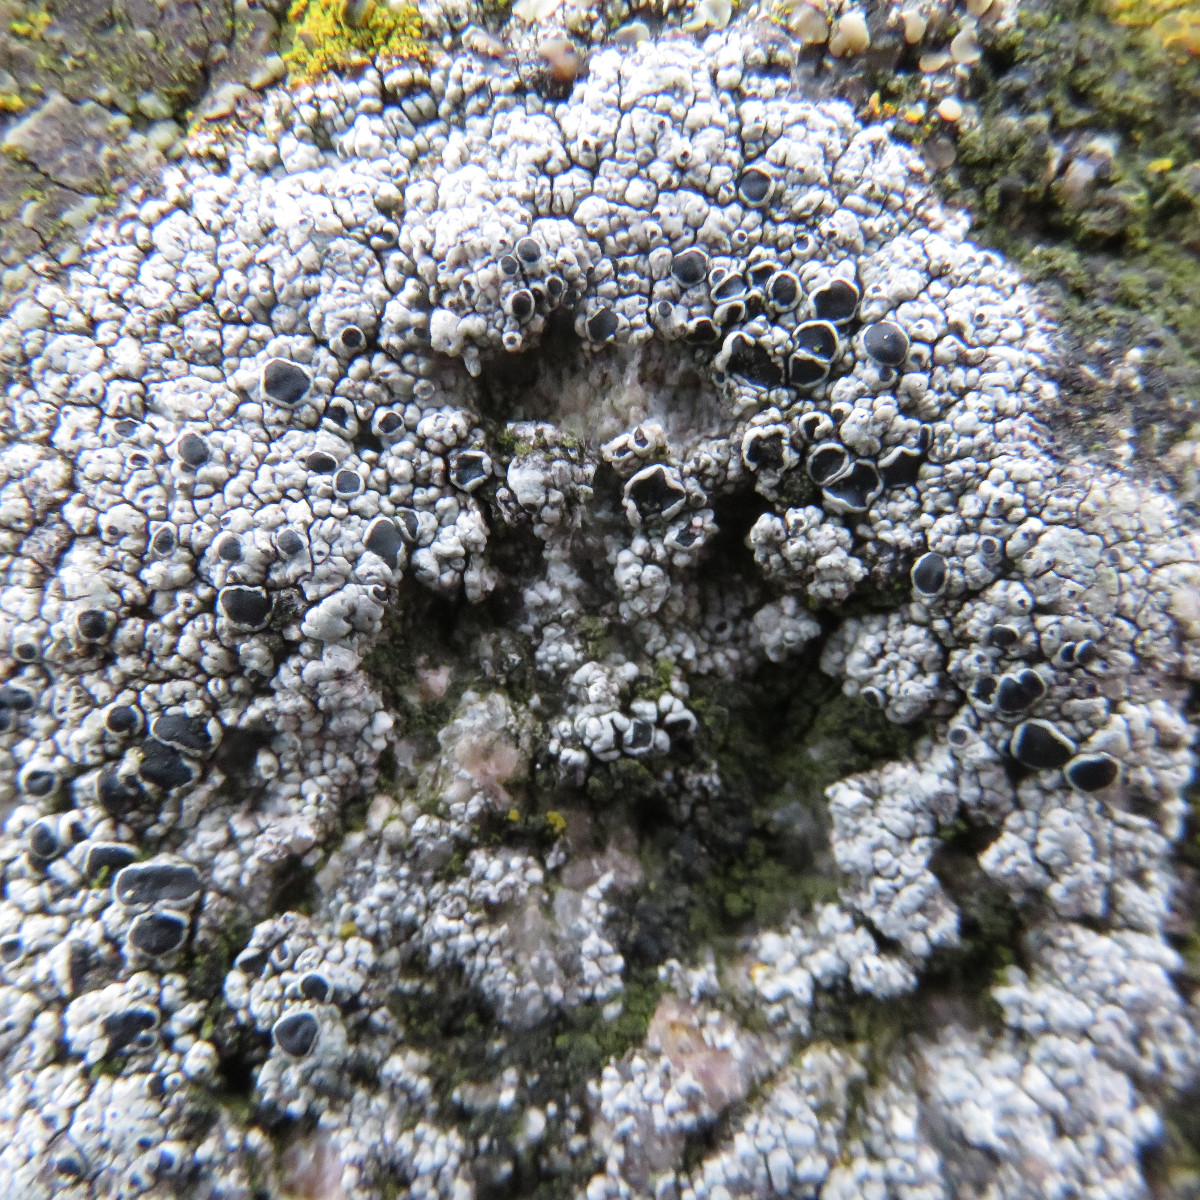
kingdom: Fungi
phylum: Ascomycota
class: Lecanoromycetes
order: Lecanorales
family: Tephromelataceae
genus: Tephromela
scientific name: Tephromela atra
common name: sortfrugtet kantskivelav
